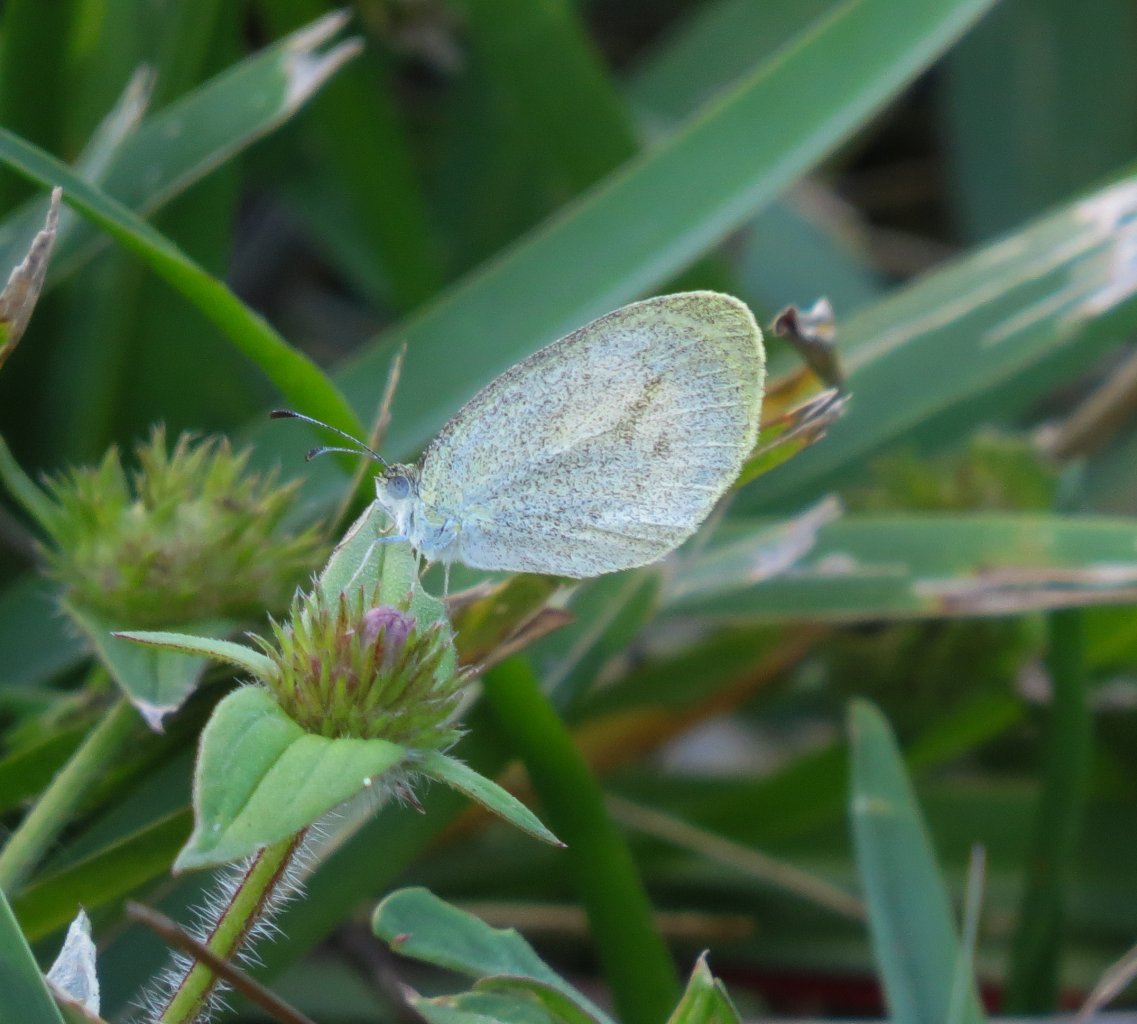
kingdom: Animalia
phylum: Arthropoda
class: Insecta
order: Lepidoptera
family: Pieridae
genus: Eurema
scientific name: Eurema daira
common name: Barred Yellow
